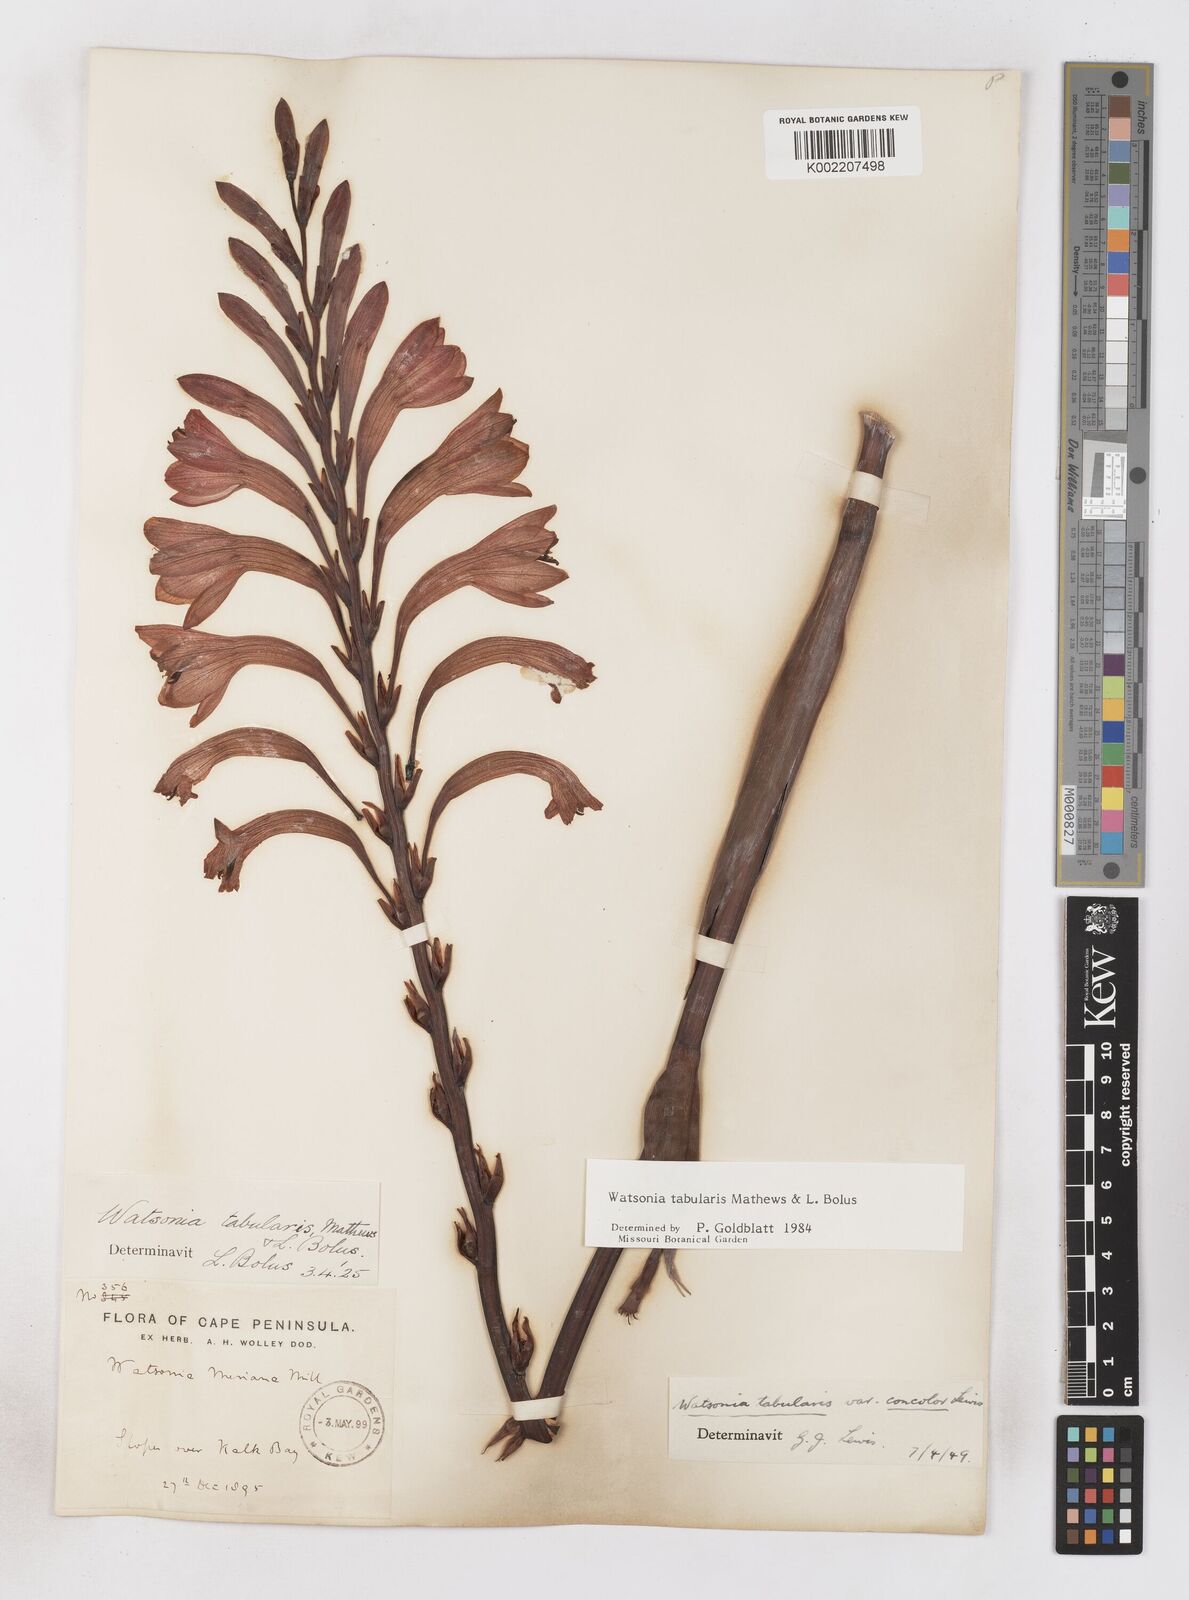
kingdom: Plantae
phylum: Tracheophyta
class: Liliopsida
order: Asparagales
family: Iridaceae
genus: Watsonia
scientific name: Watsonia tabularis
